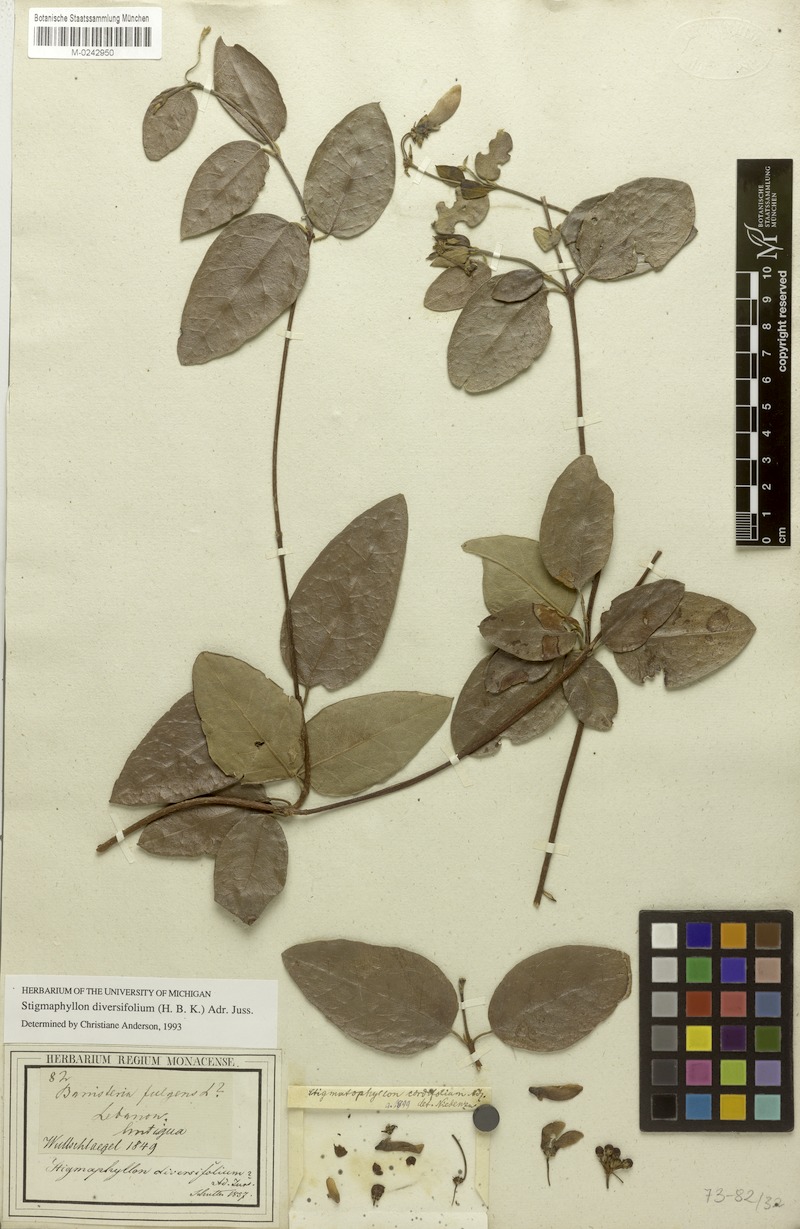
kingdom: Plantae
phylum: Tracheophyta
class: Magnoliopsida
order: Malpighiales
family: Malpighiaceae
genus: Stigmaphyllon
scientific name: Stigmaphyllon diversifolium
